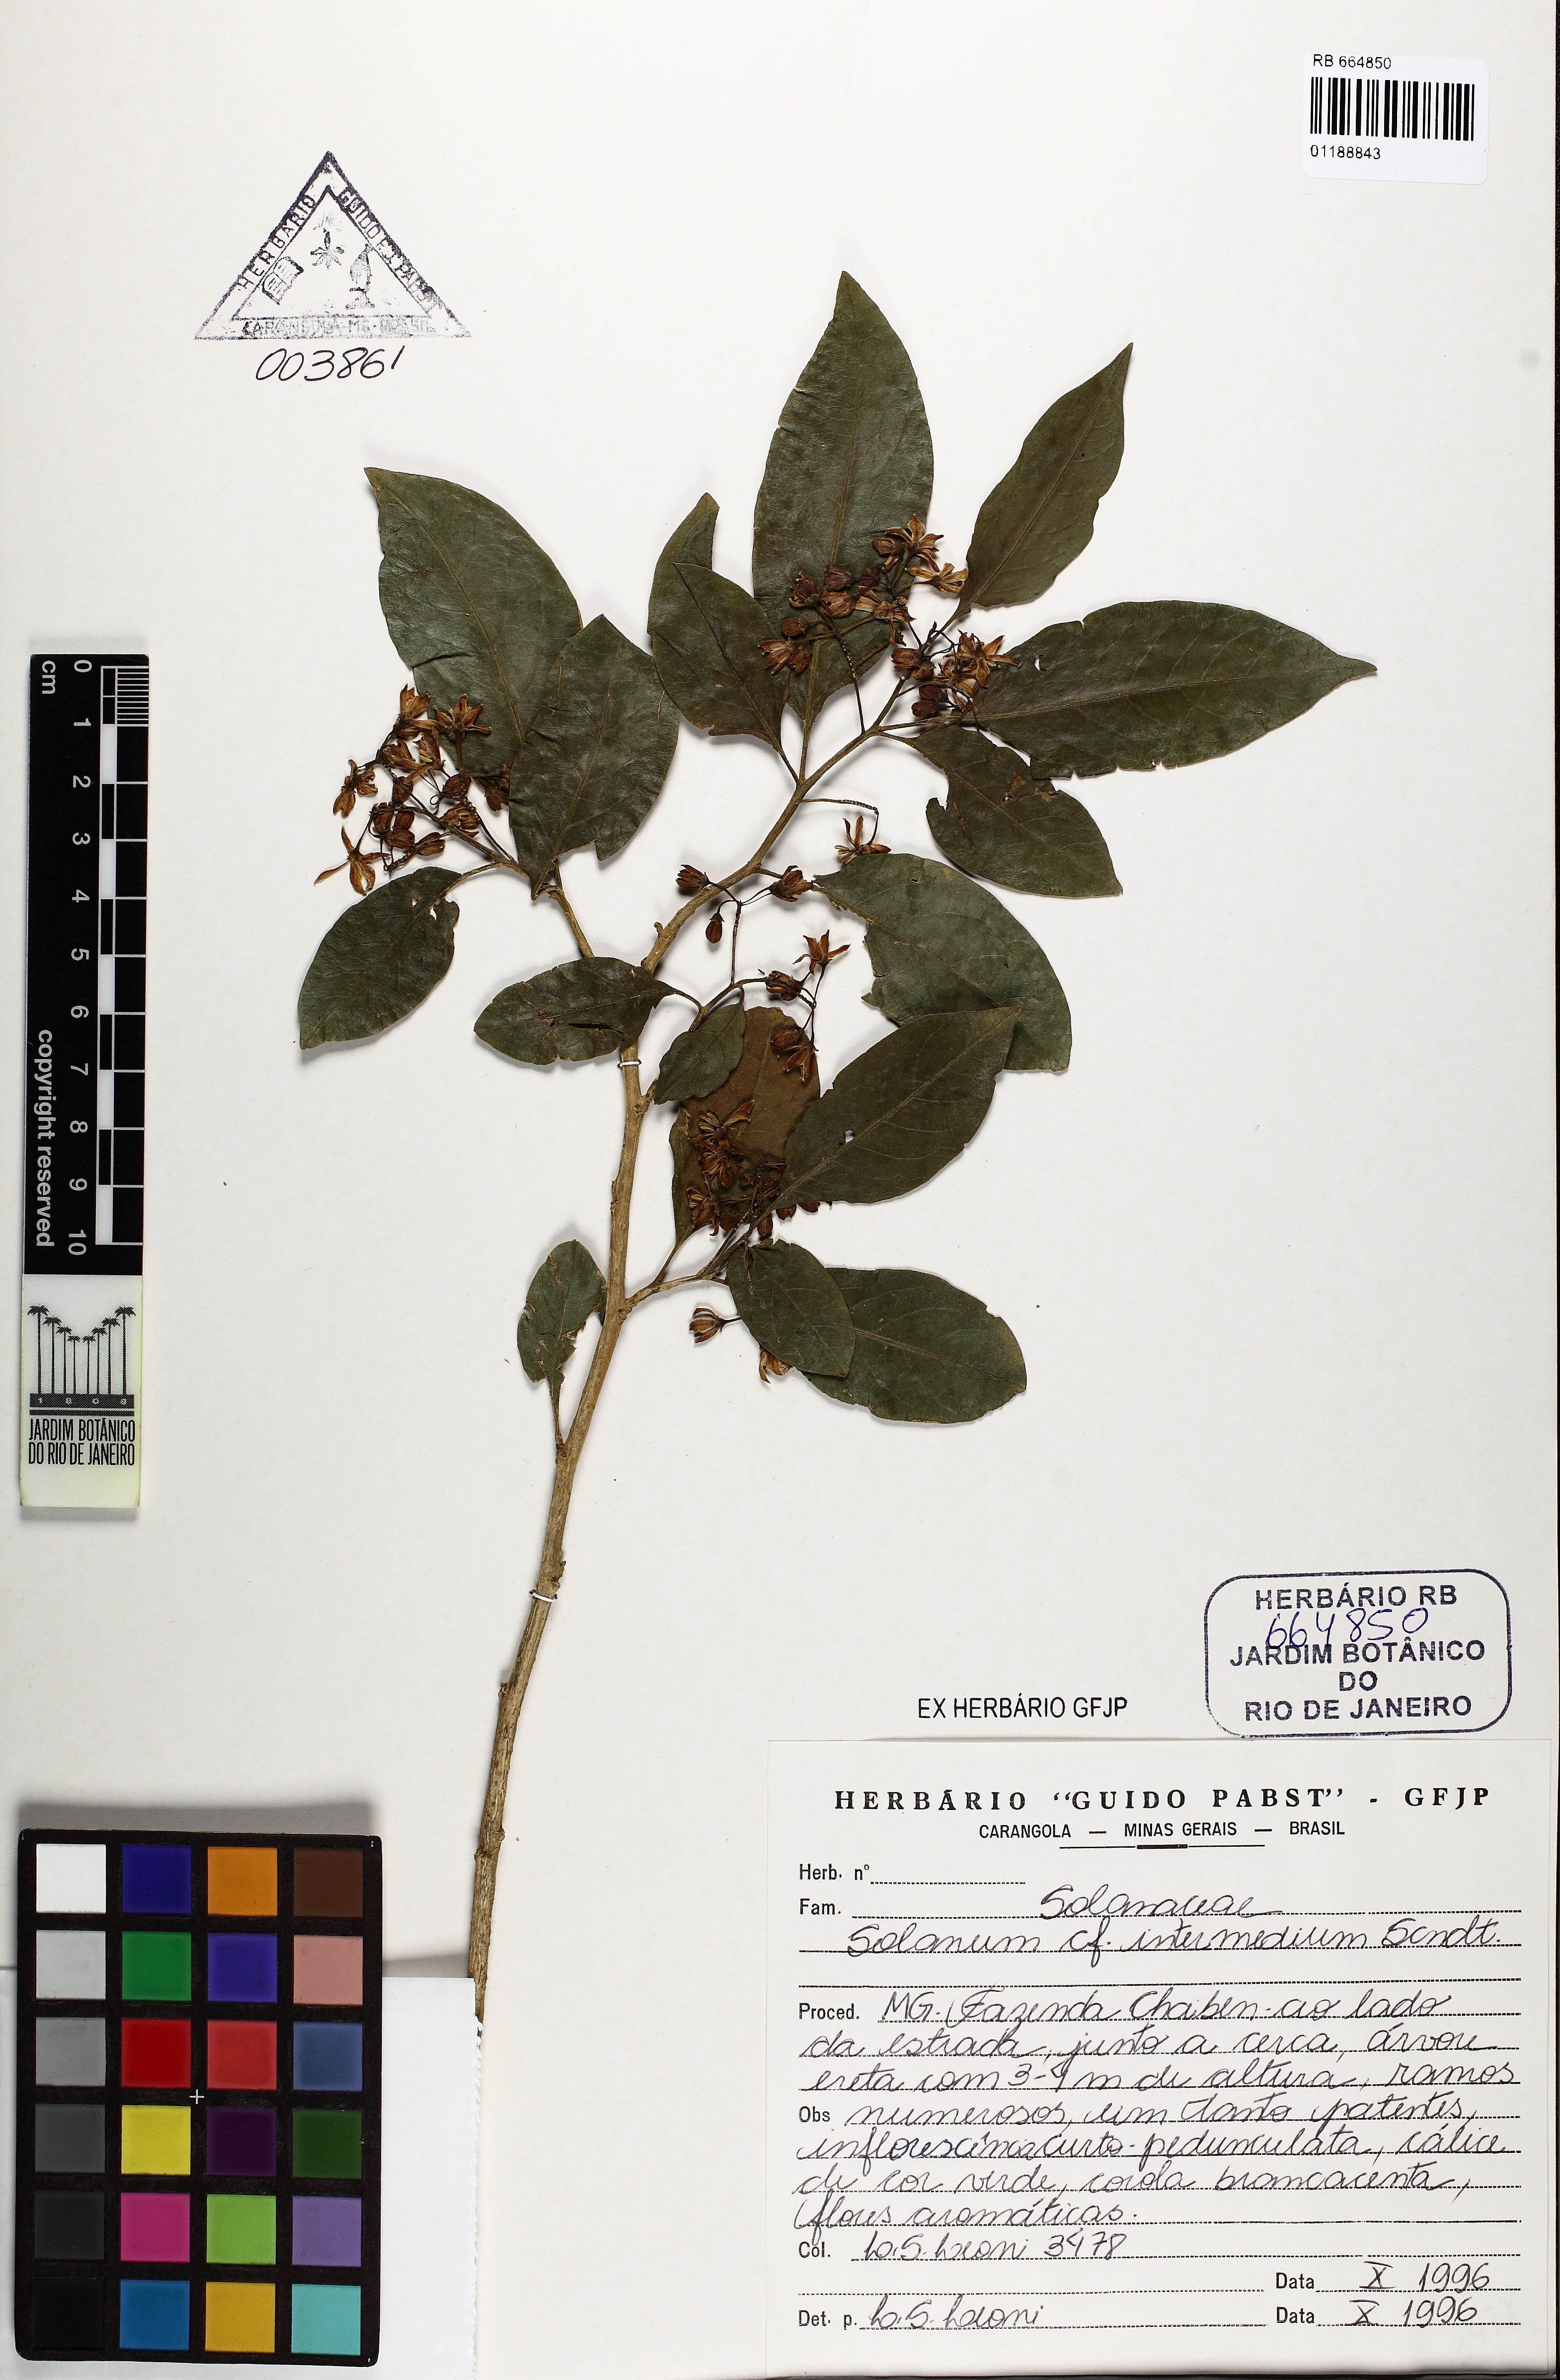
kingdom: Plantae
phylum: Tracheophyta
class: Magnoliopsida
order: Solanales
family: Solanaceae
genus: Solanum
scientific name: Solanum intermedium
